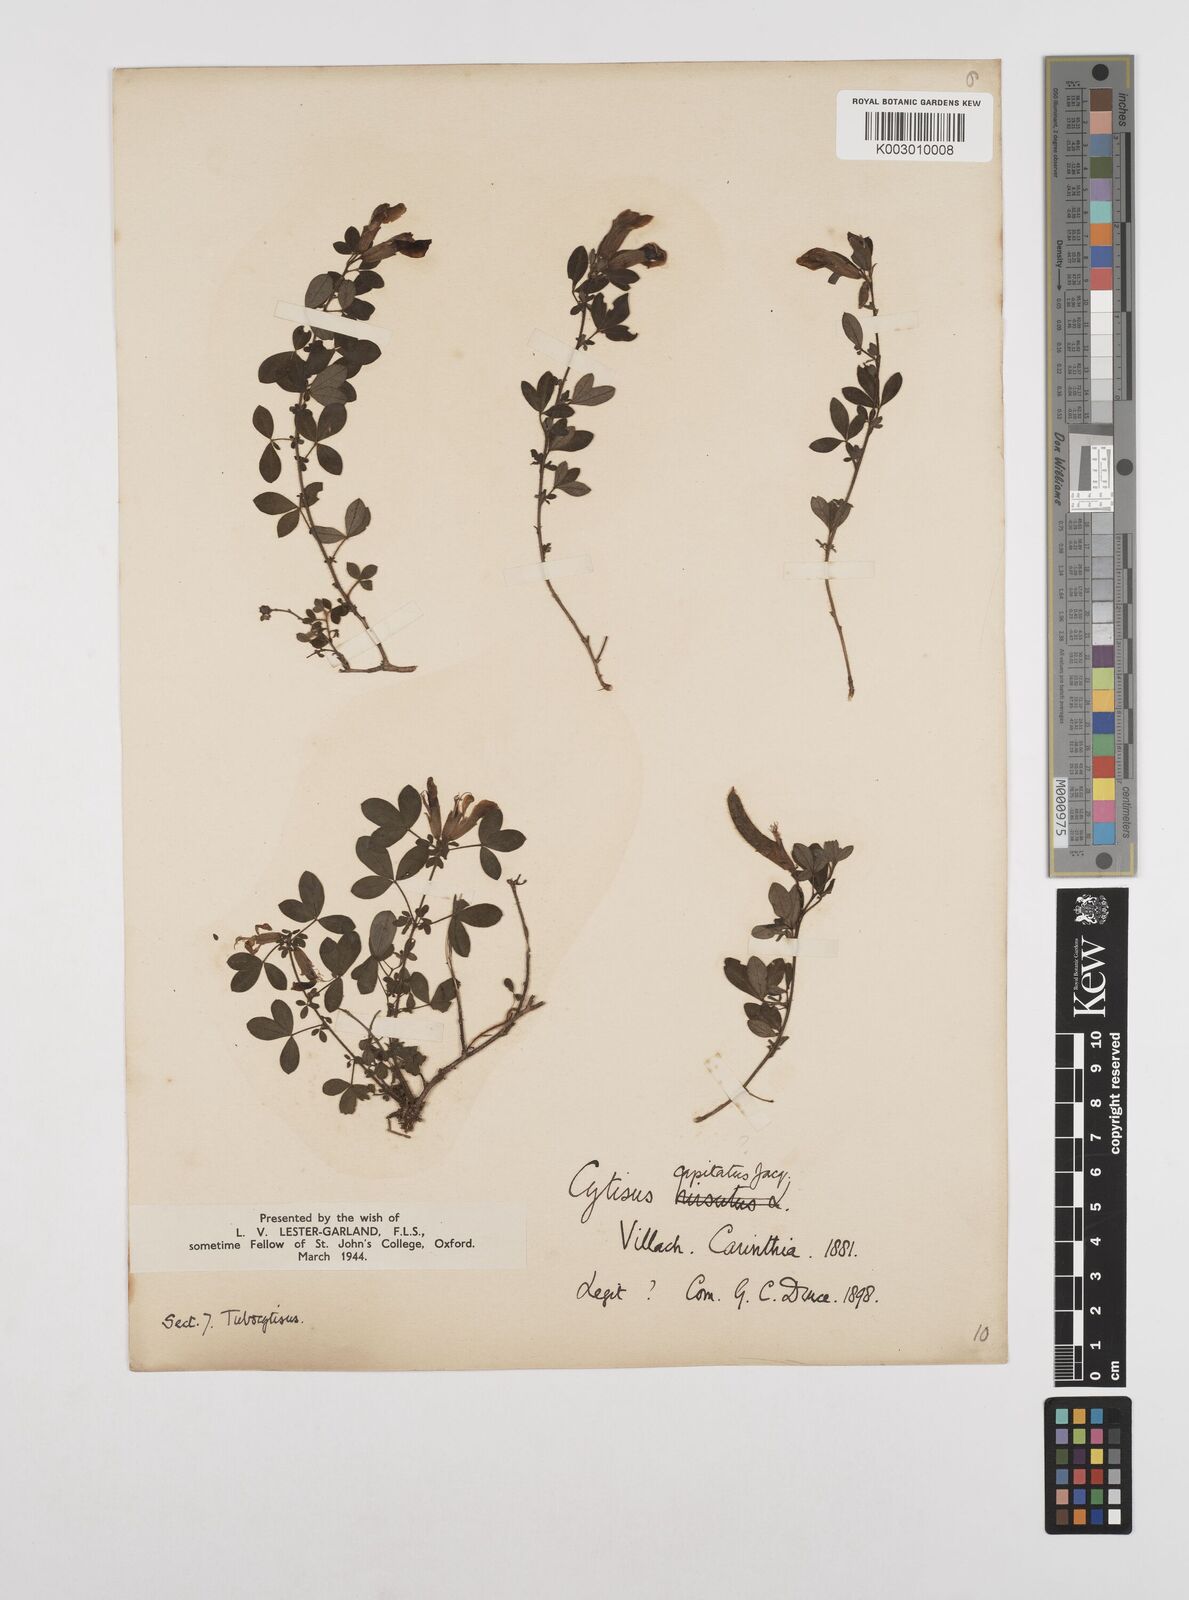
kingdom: Plantae
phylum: Tracheophyta
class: Magnoliopsida
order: Fabales
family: Fabaceae
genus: Chamaecytisus
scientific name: Chamaecytisus hirsutus
